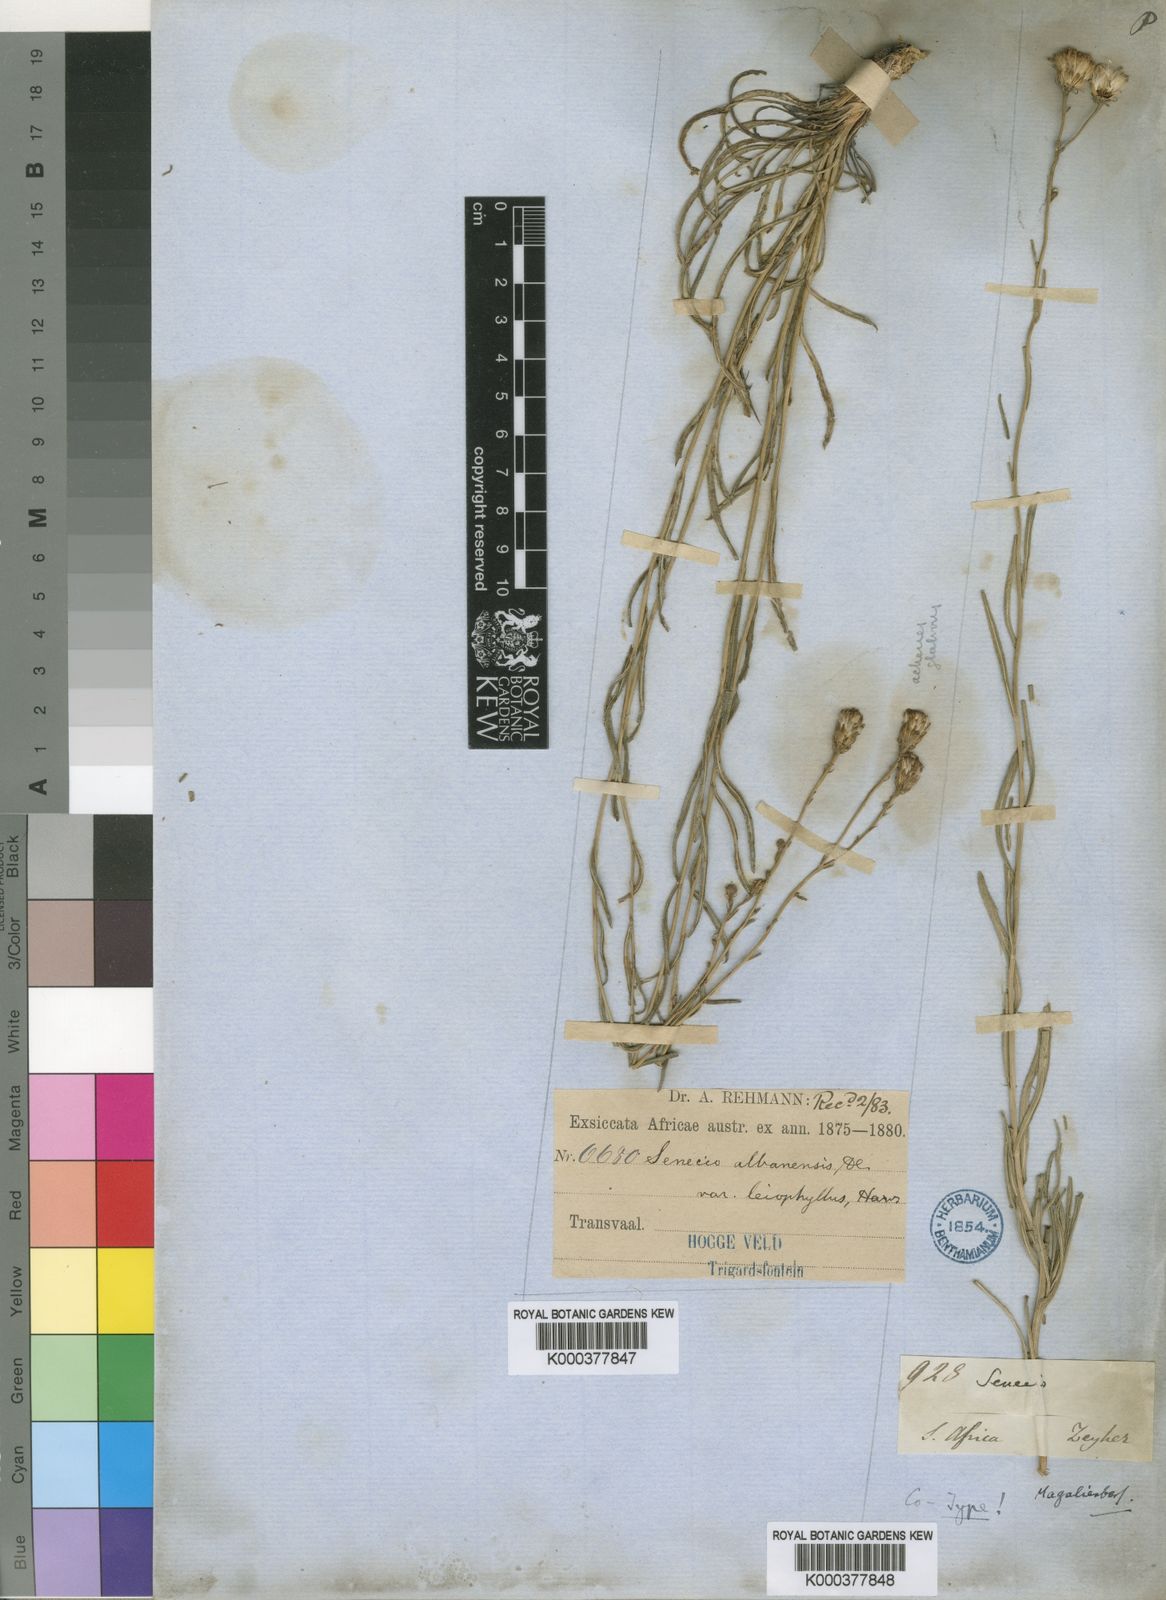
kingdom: Plantae
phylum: Tracheophyta
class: Magnoliopsida
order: Asterales
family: Asteraceae
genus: Senecio
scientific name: Senecio affinis
